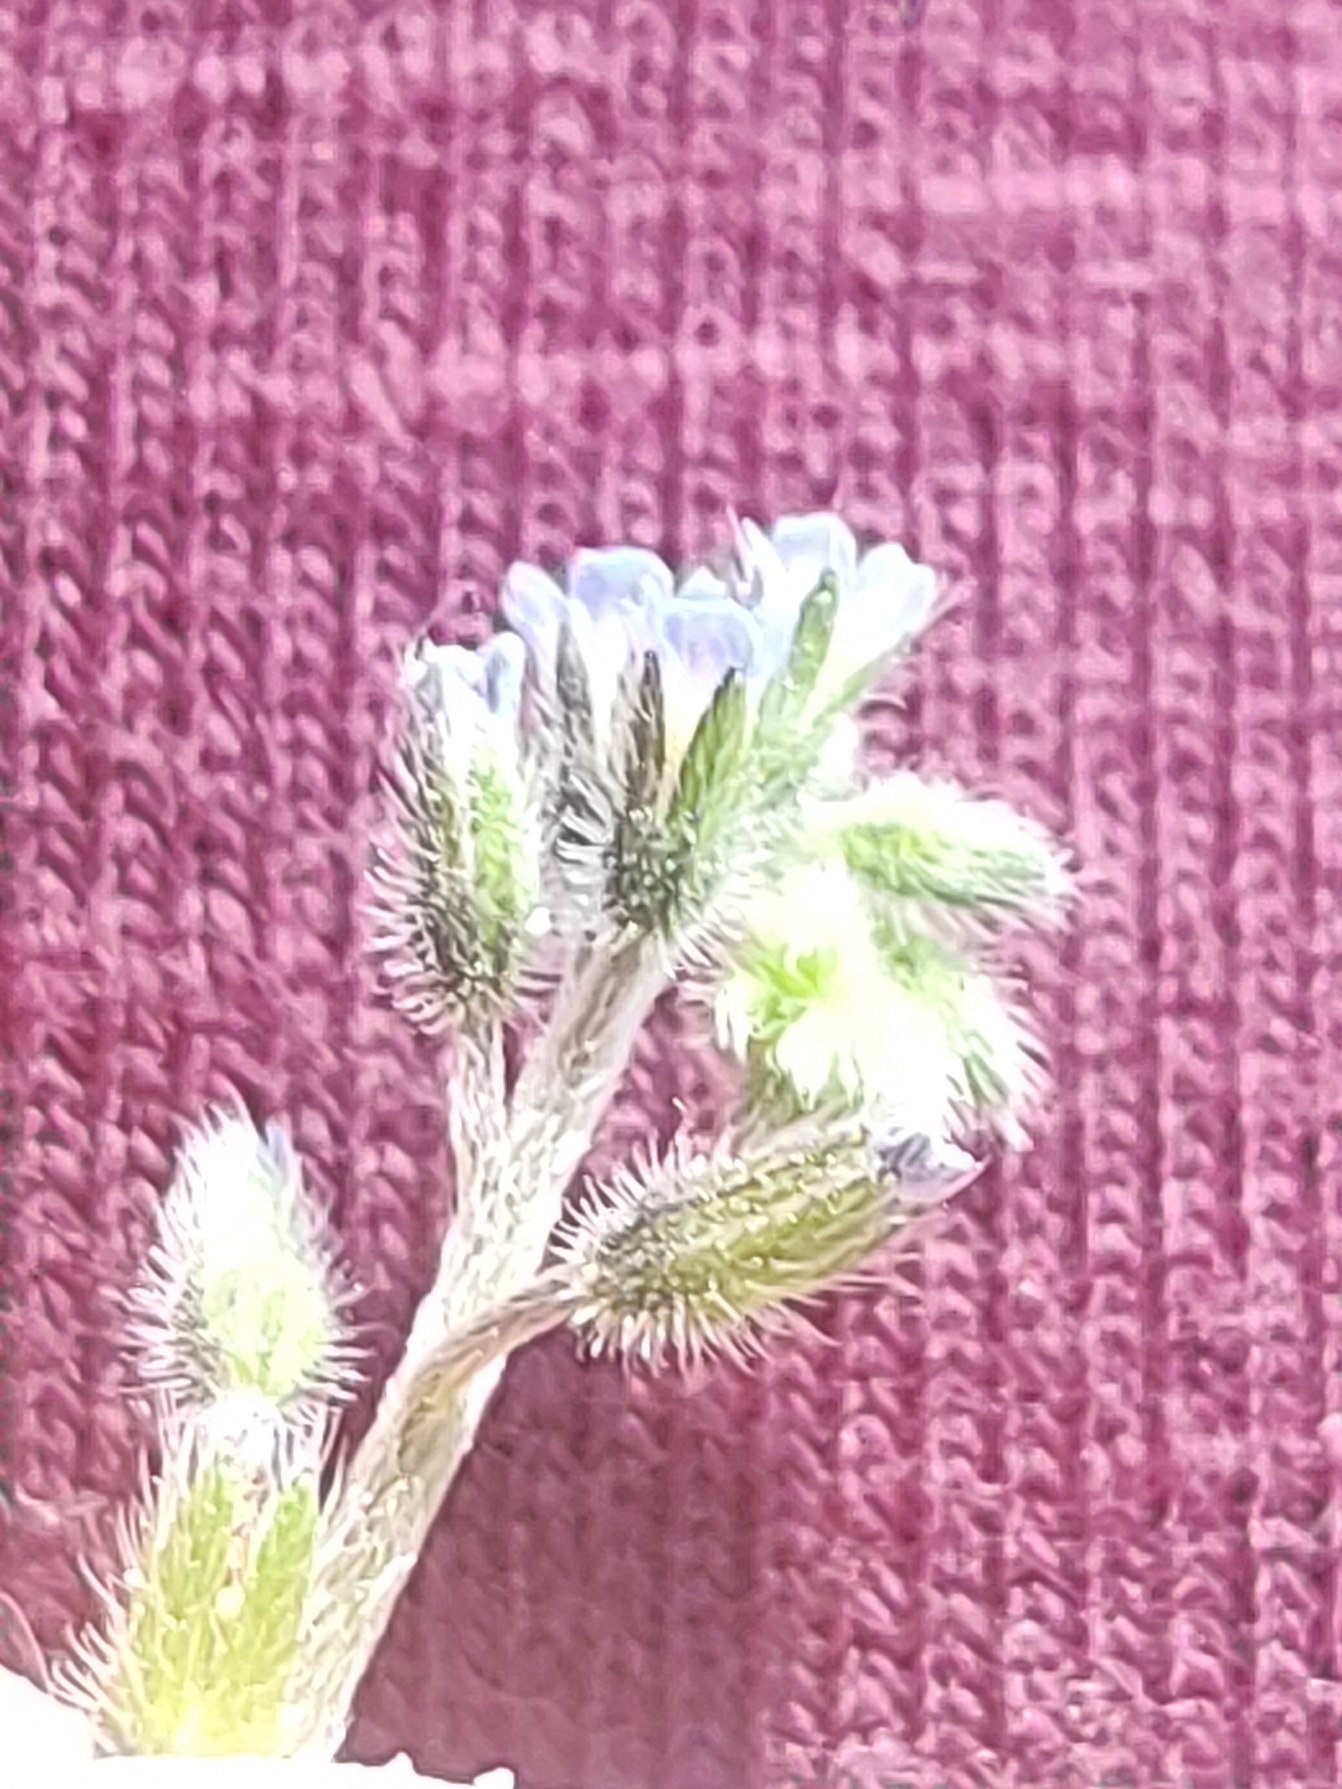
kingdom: Plantae
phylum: Tracheophyta
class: Magnoliopsida
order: Boraginales
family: Boraginaceae
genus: Myosotis
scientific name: Myosotis ramosissima
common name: Bakke-forglemmigej
